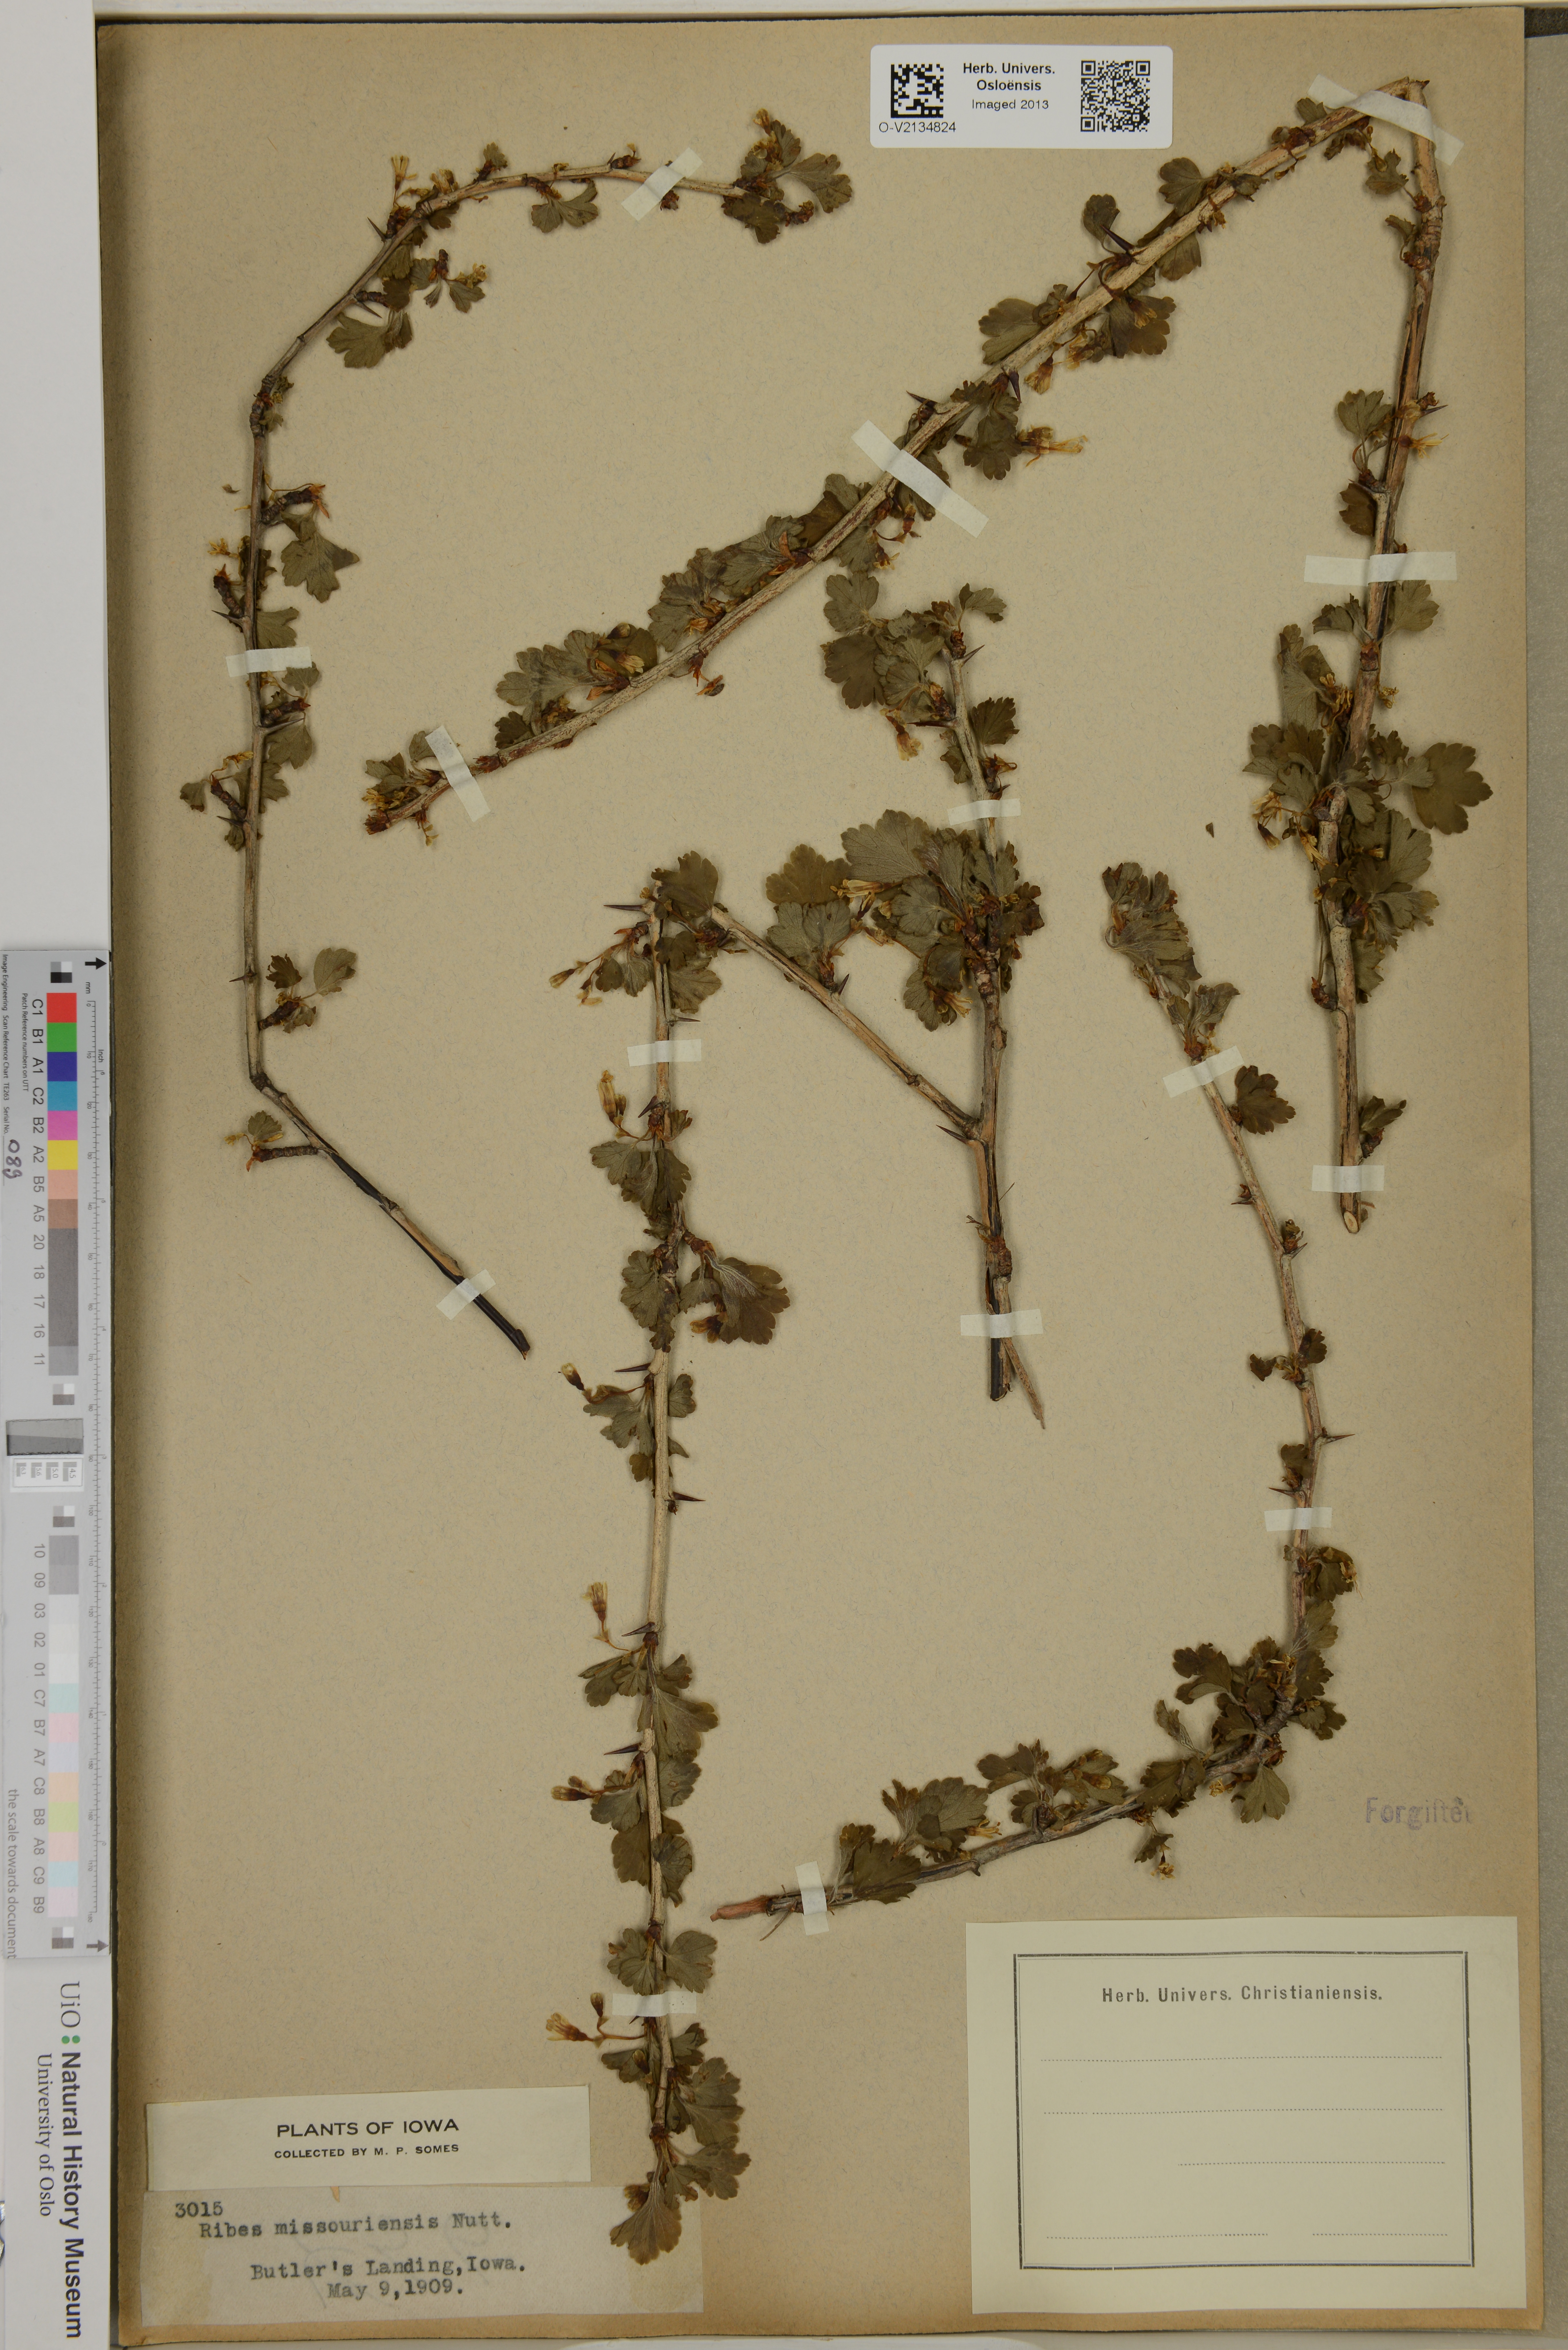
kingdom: Plantae
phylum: Tracheophyta
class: Magnoliopsida
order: Saxifragales
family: Grossulariaceae
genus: Ribes
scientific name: Ribes missouriense
